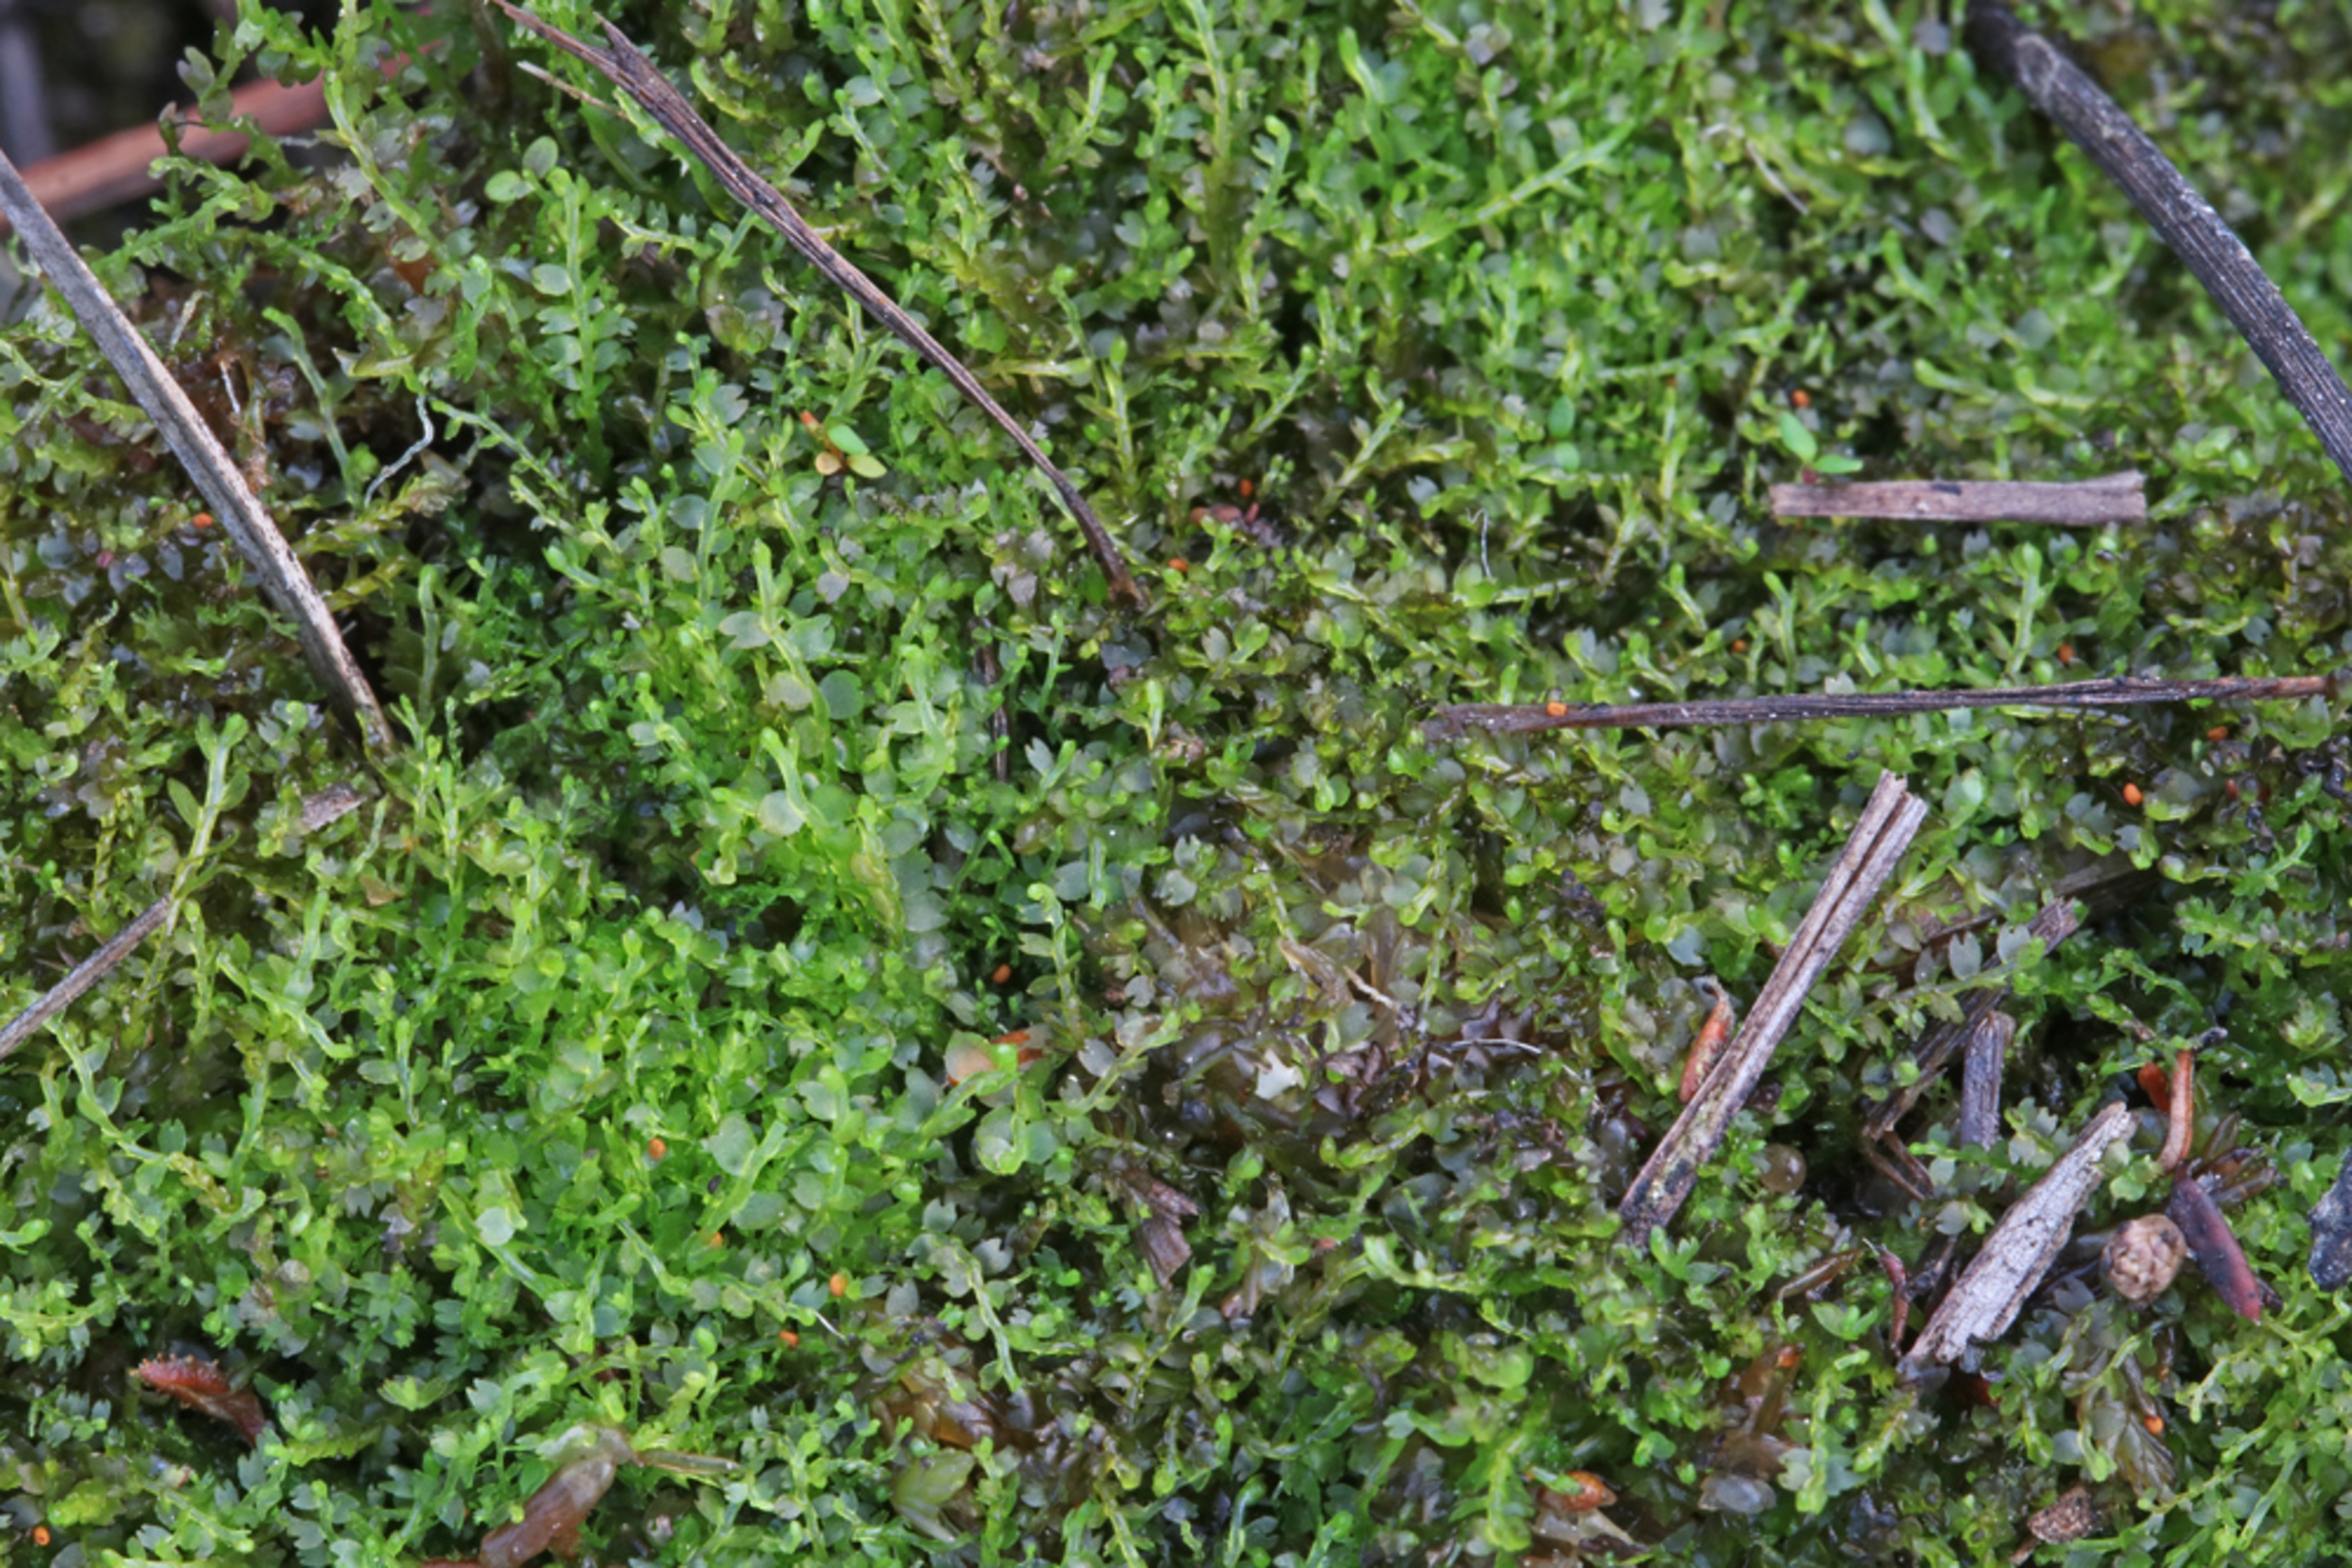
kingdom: Plantae
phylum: Marchantiophyta
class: Jungermanniopsida
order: Jungermanniales
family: Cephaloziaceae
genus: Odontoschisma
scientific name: Odontoschisma fluitans
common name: Tørve-vævmos
